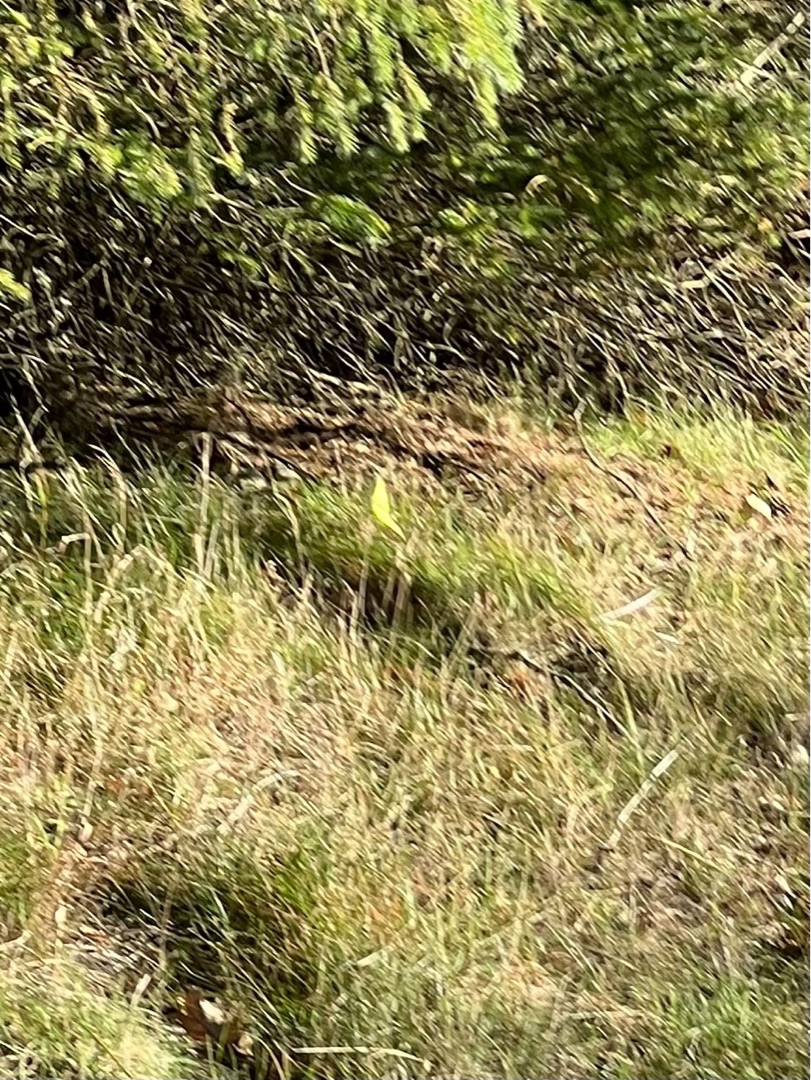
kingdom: Animalia
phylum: Arthropoda
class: Insecta
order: Lepidoptera
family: Pieridae
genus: Gonepteryx
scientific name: Gonepteryx rhamni
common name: Citronsommerfugl
